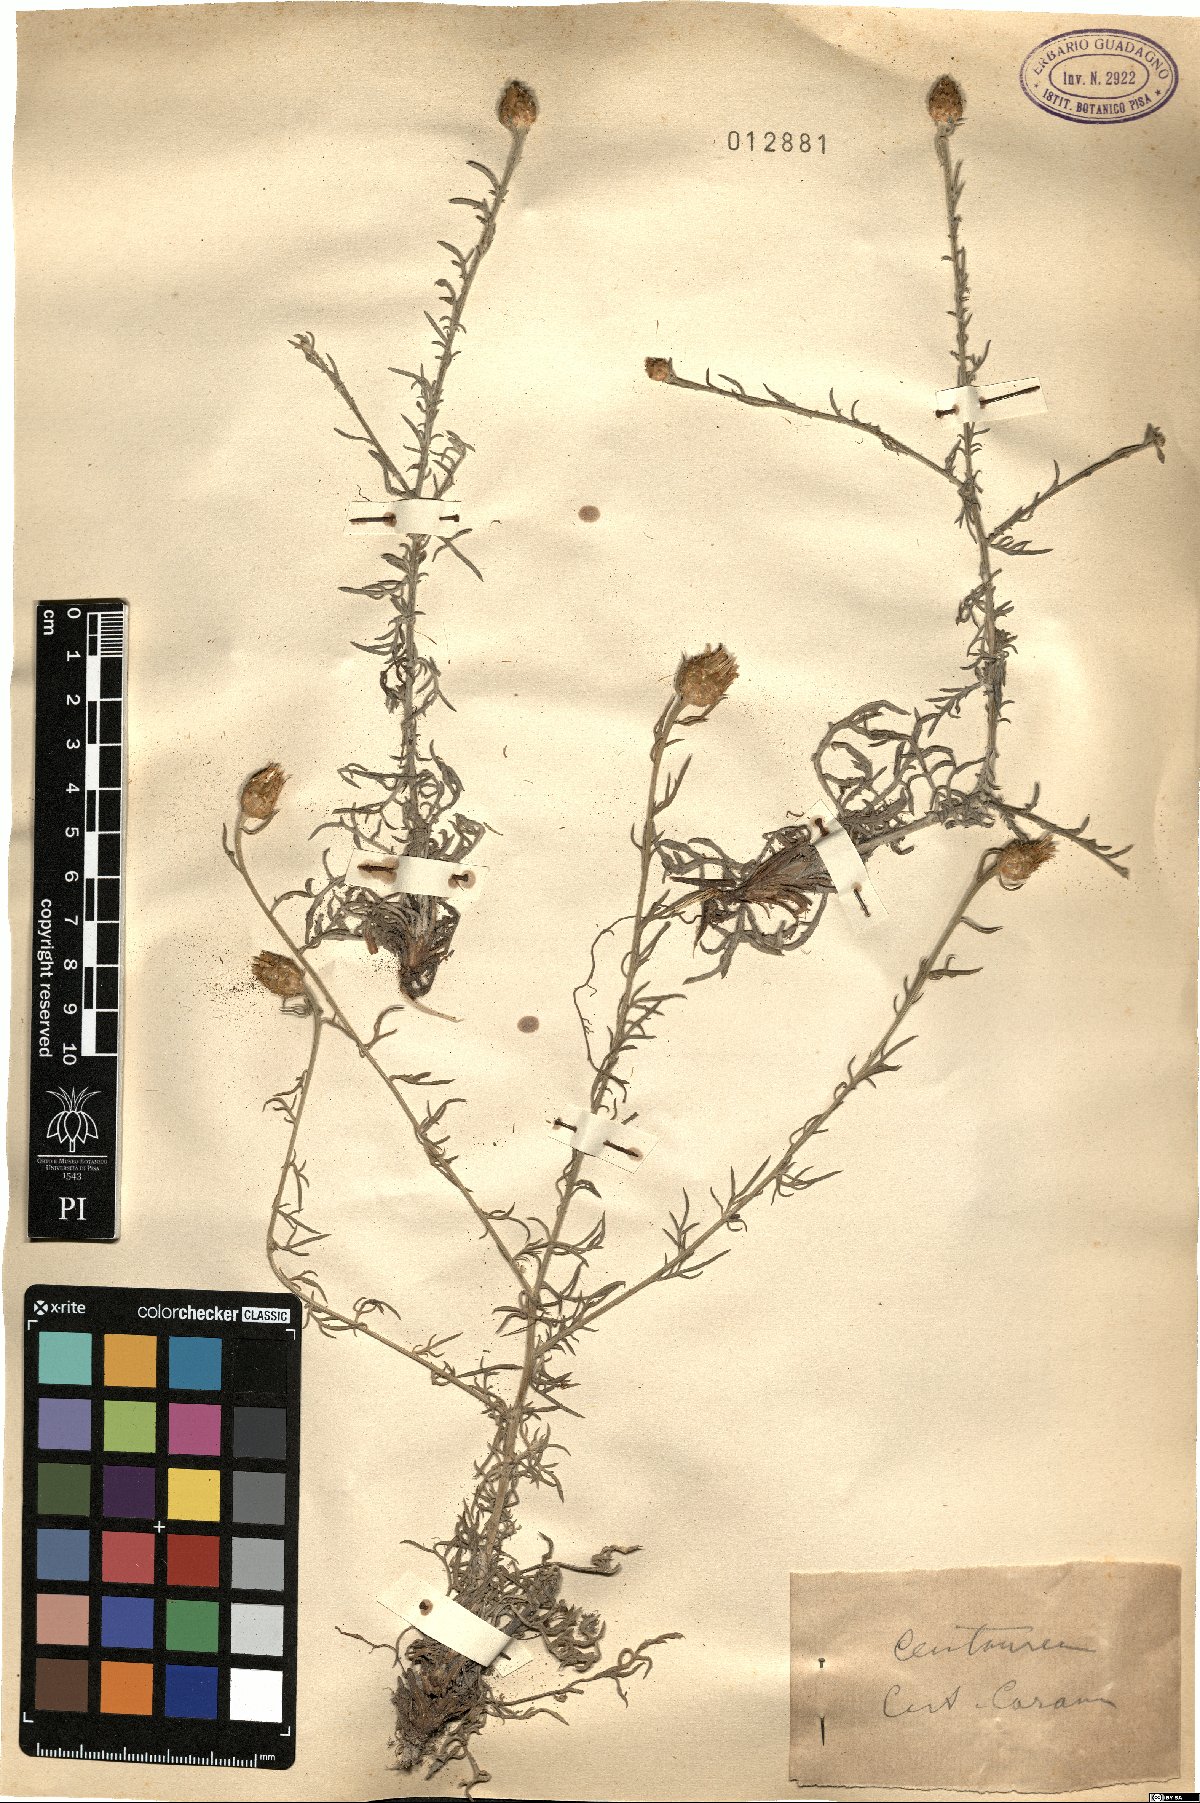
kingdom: Plantae
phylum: Tracheophyta
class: Magnoliopsida
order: Asterales
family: Asteraceae
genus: Centaurea
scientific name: Centaurea
